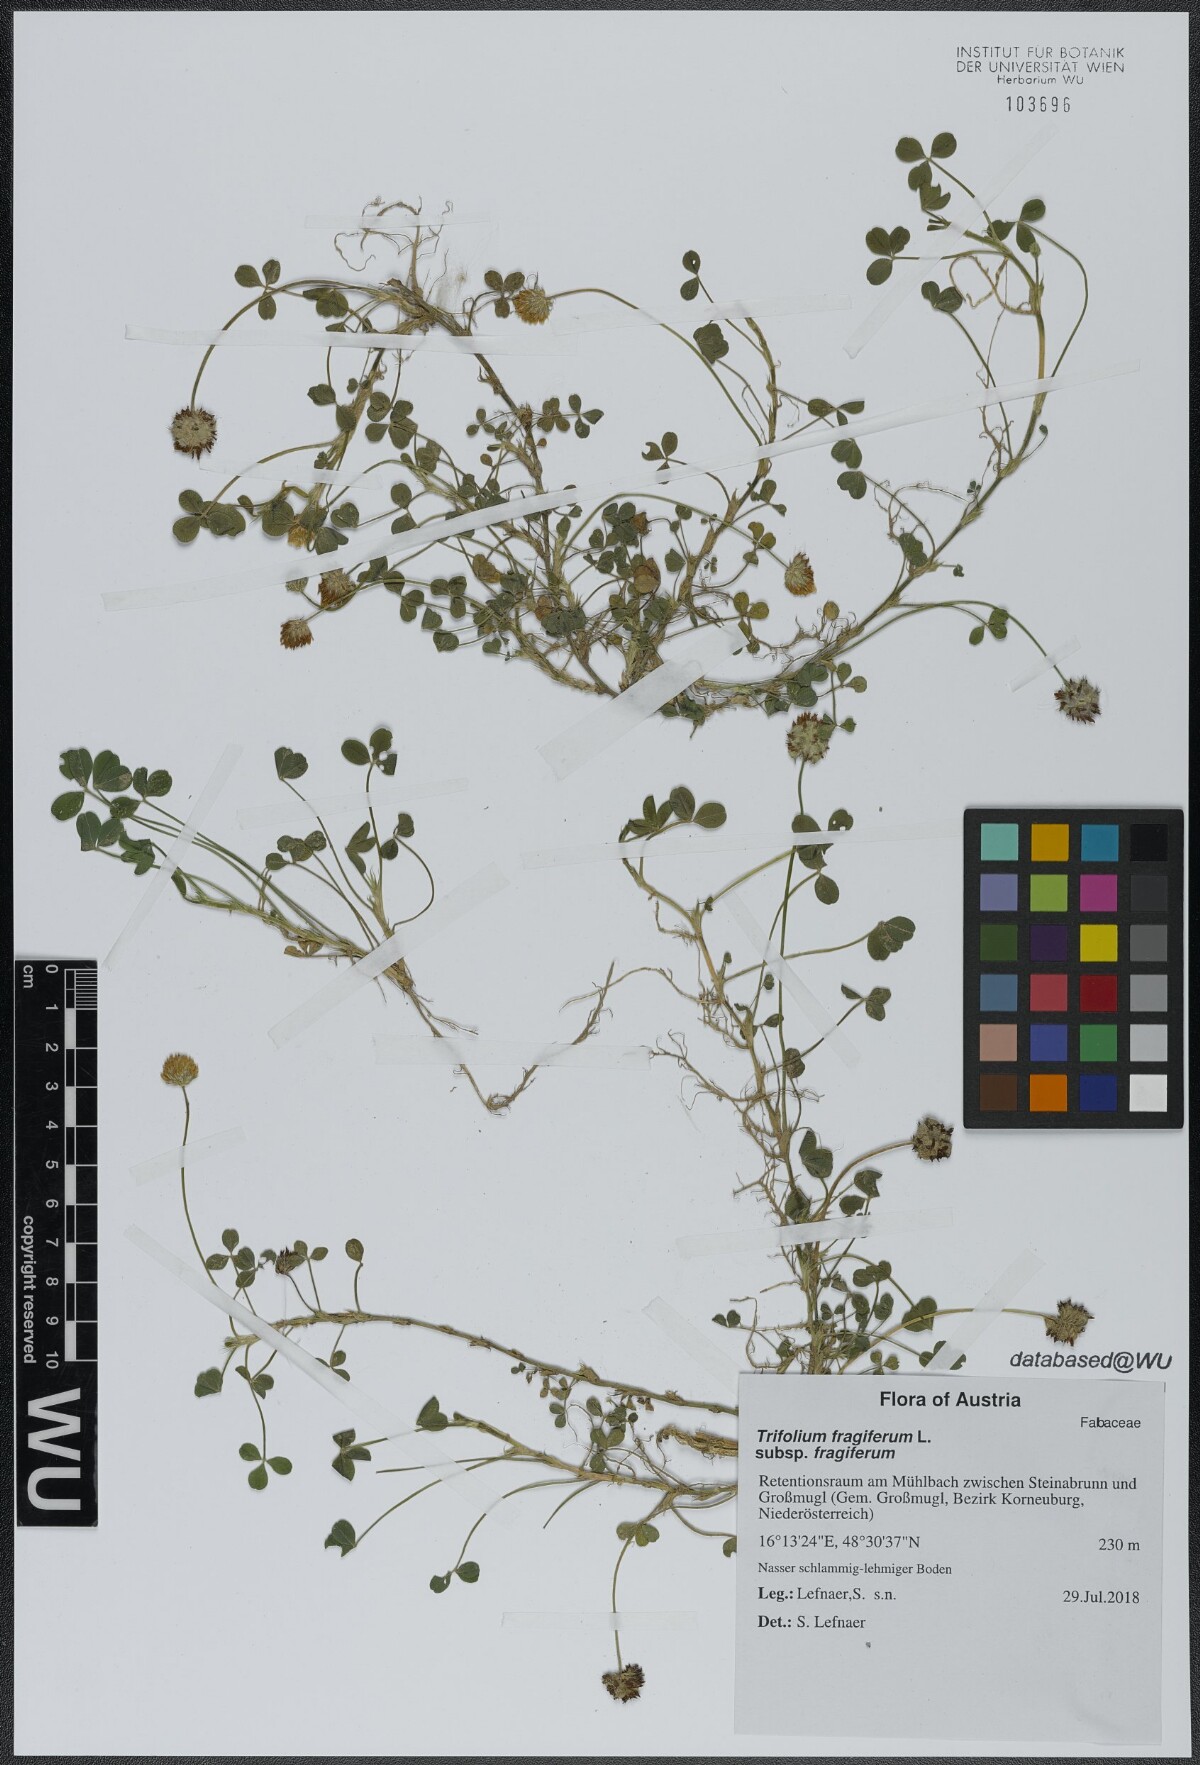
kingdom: Plantae
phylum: Tracheophyta
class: Magnoliopsida
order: Fabales
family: Fabaceae
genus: Trifolium
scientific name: Trifolium fragiferum
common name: Strawberry clover
